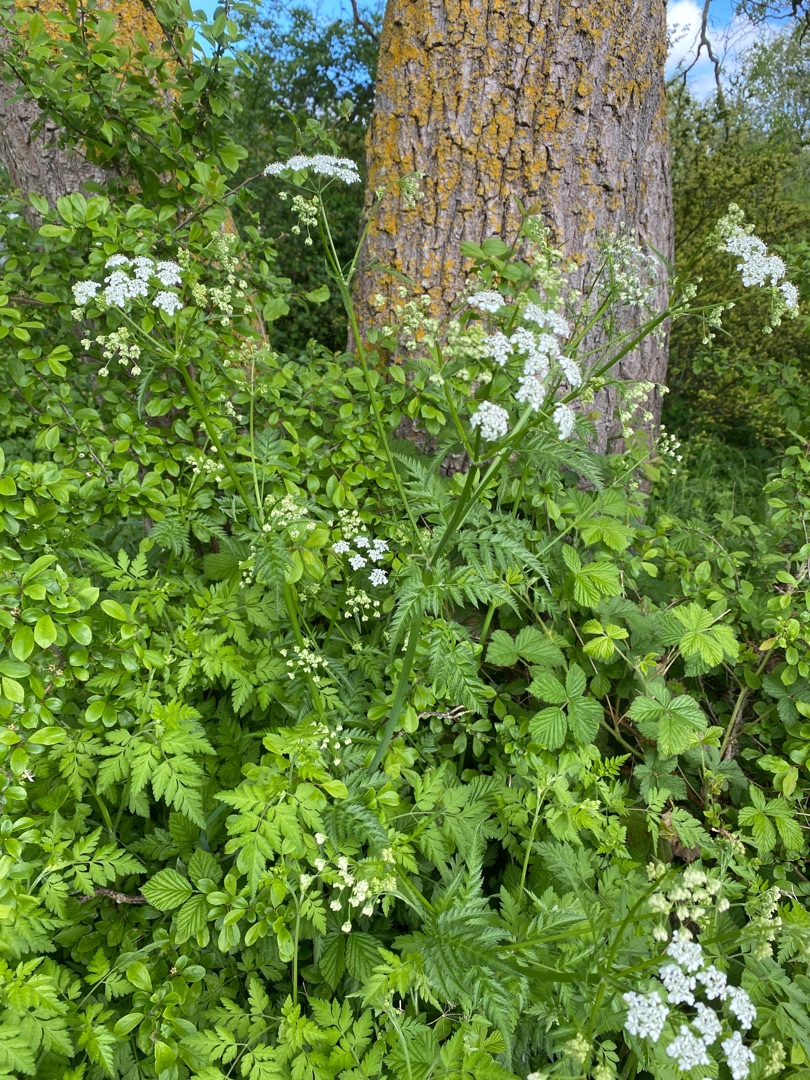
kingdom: Plantae
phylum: Tracheophyta
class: Magnoliopsida
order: Apiales
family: Apiaceae
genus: Anthriscus
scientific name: Anthriscus sylvestris
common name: Vild kørvel
